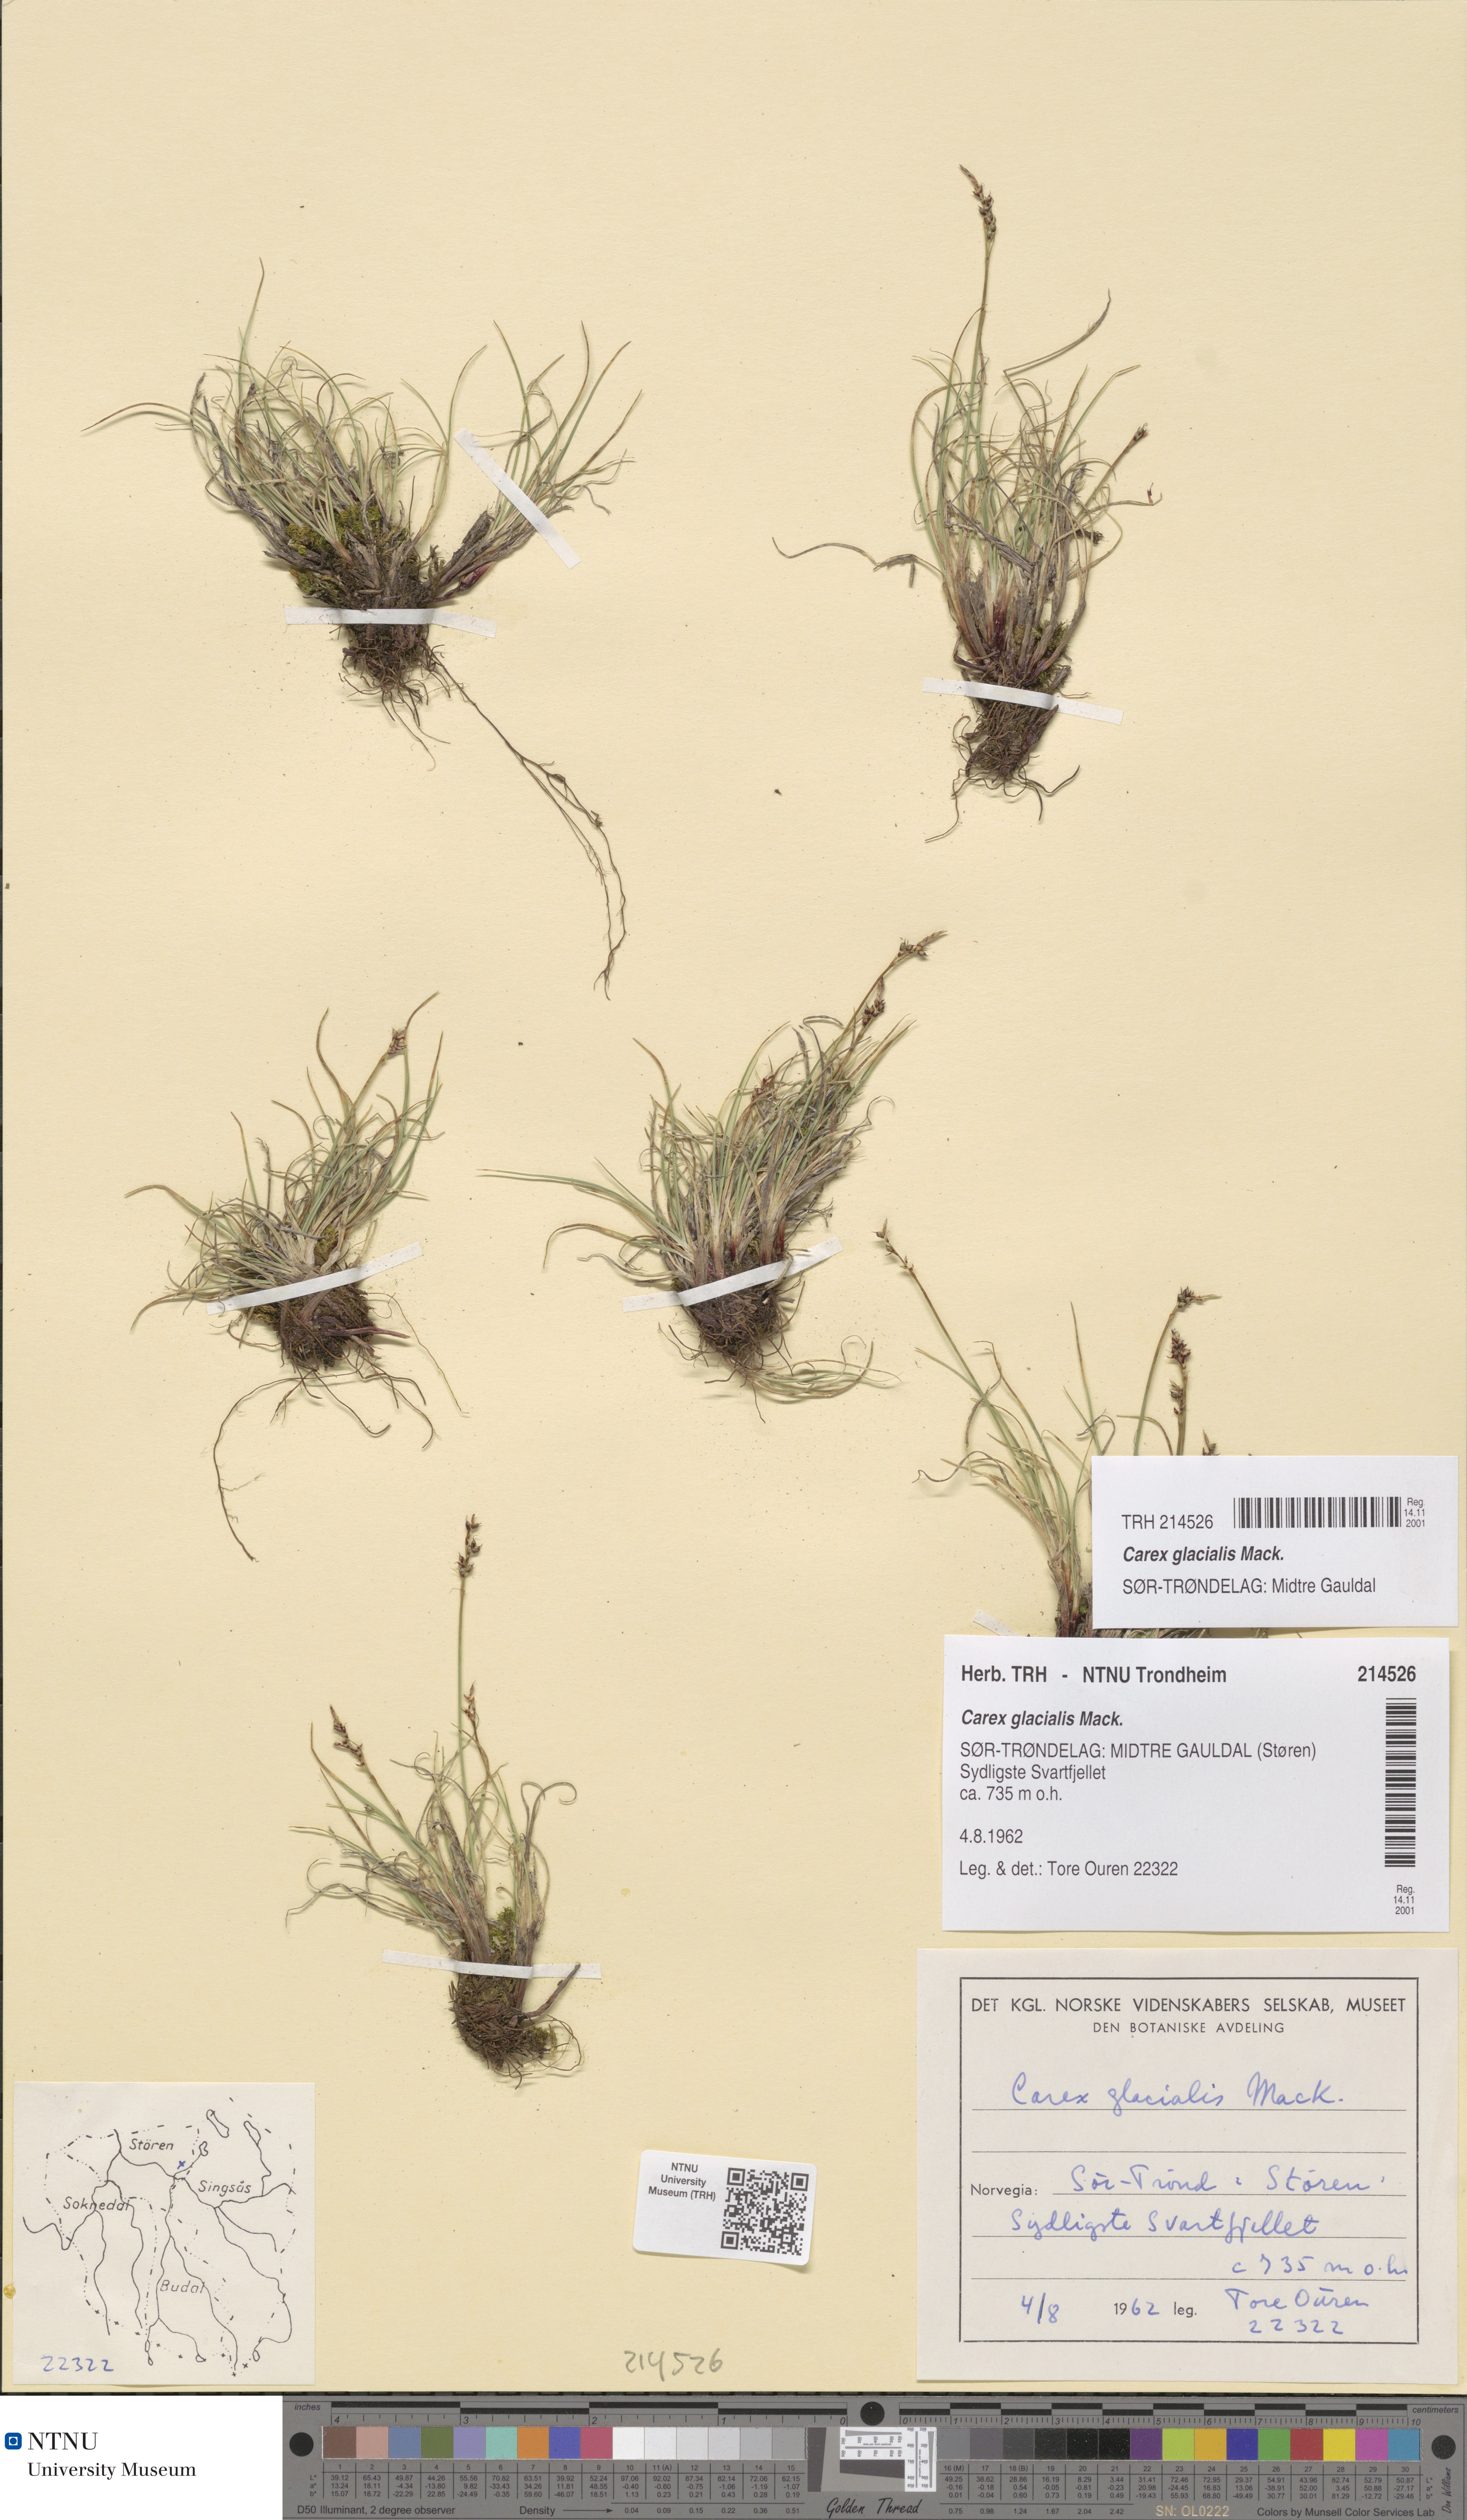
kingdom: Plantae
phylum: Tracheophyta
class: Liliopsida
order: Poales
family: Cyperaceae
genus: Carex
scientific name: Carex glacialis
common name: Newfoundland sedge
